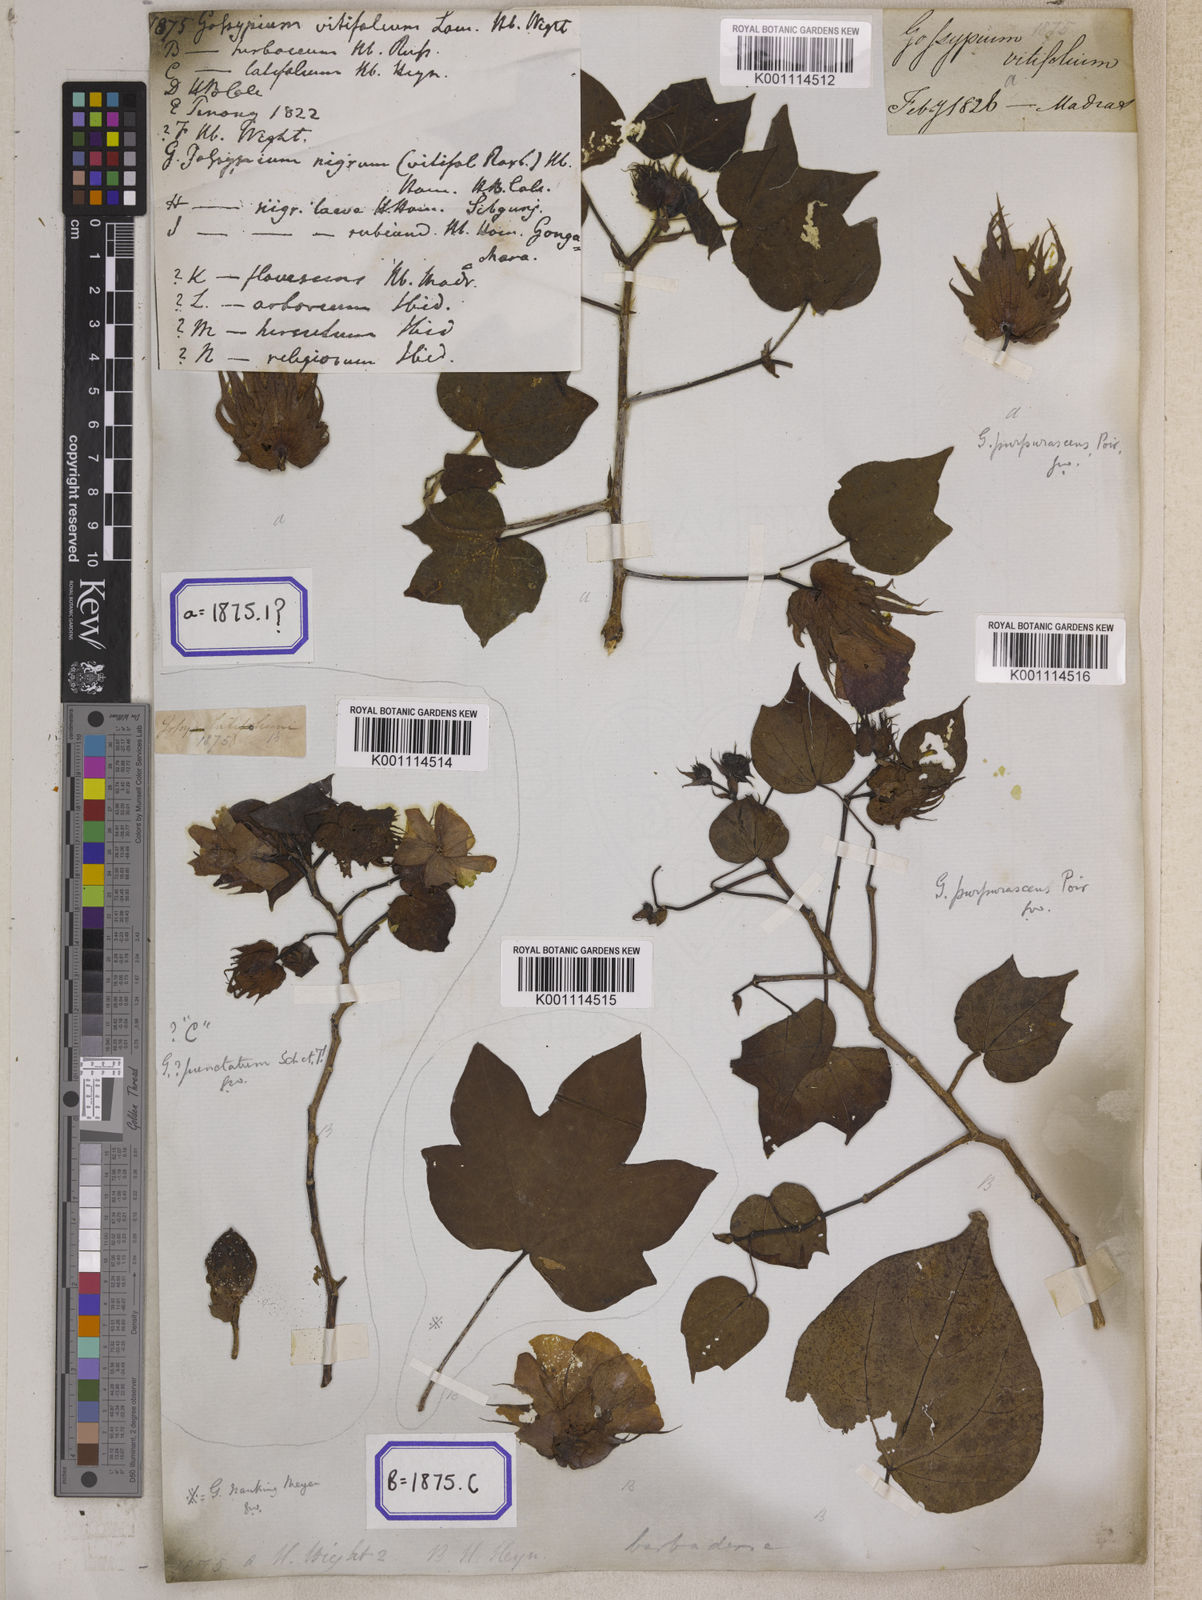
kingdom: Plantae
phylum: Tracheophyta
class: Magnoliopsida
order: Malvales
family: Malvaceae
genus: Gossypium
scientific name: Gossypium barbadense
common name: Creole cotton
